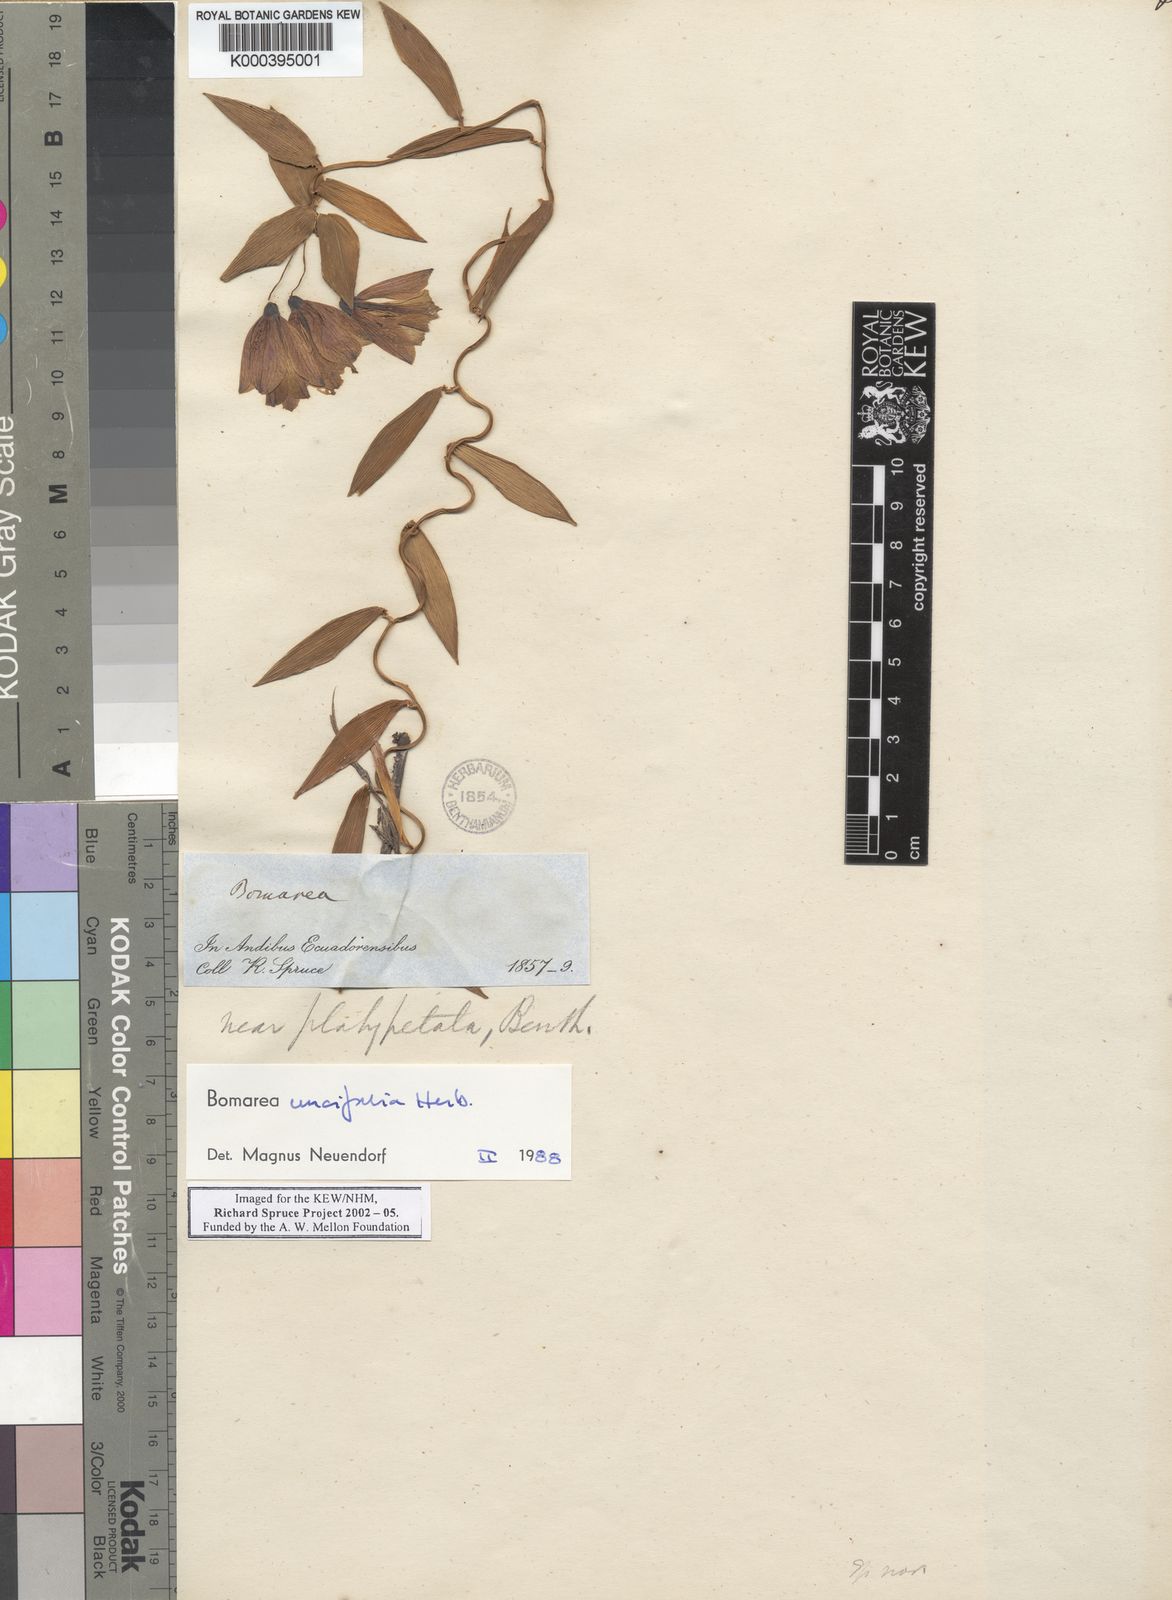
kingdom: Plantae
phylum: Tracheophyta
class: Liliopsida
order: Liliales
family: Alstroemeriaceae
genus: Bomarea
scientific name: Bomarea uncifolia
